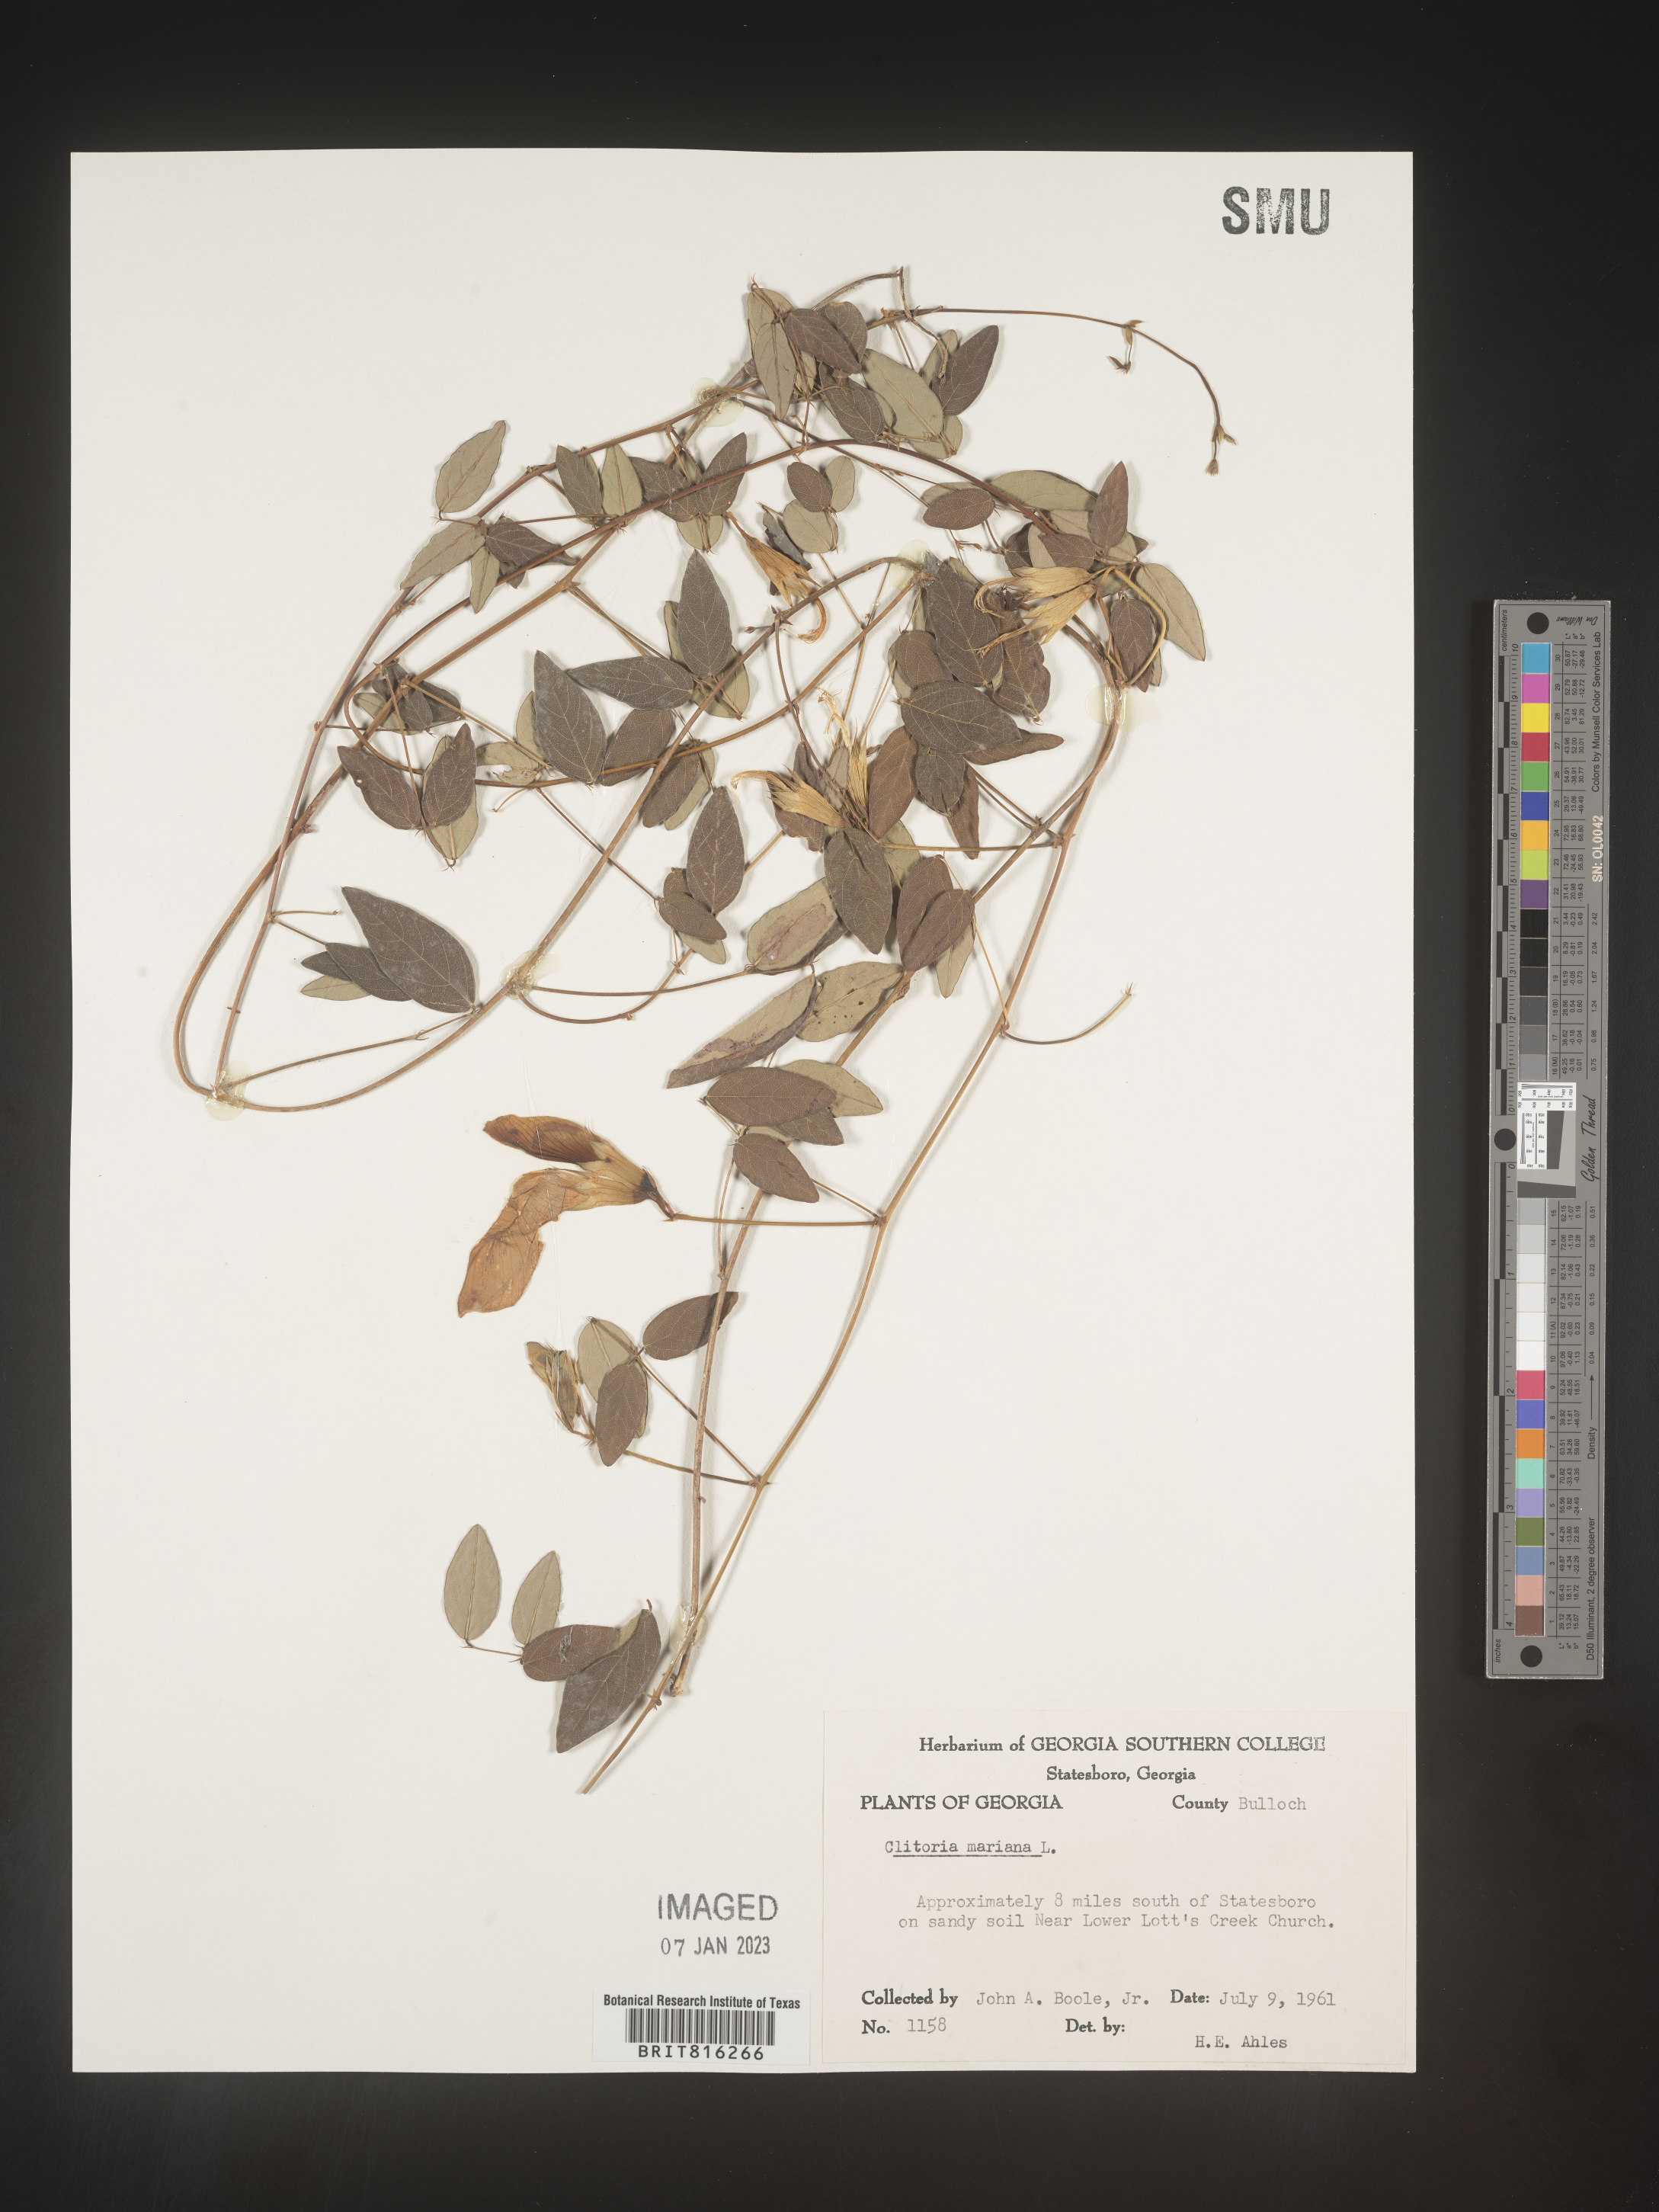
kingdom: Plantae
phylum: Tracheophyta
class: Magnoliopsida
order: Fabales
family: Fabaceae
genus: Clitoria
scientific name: Clitoria mariana
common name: Butterfly-pea
